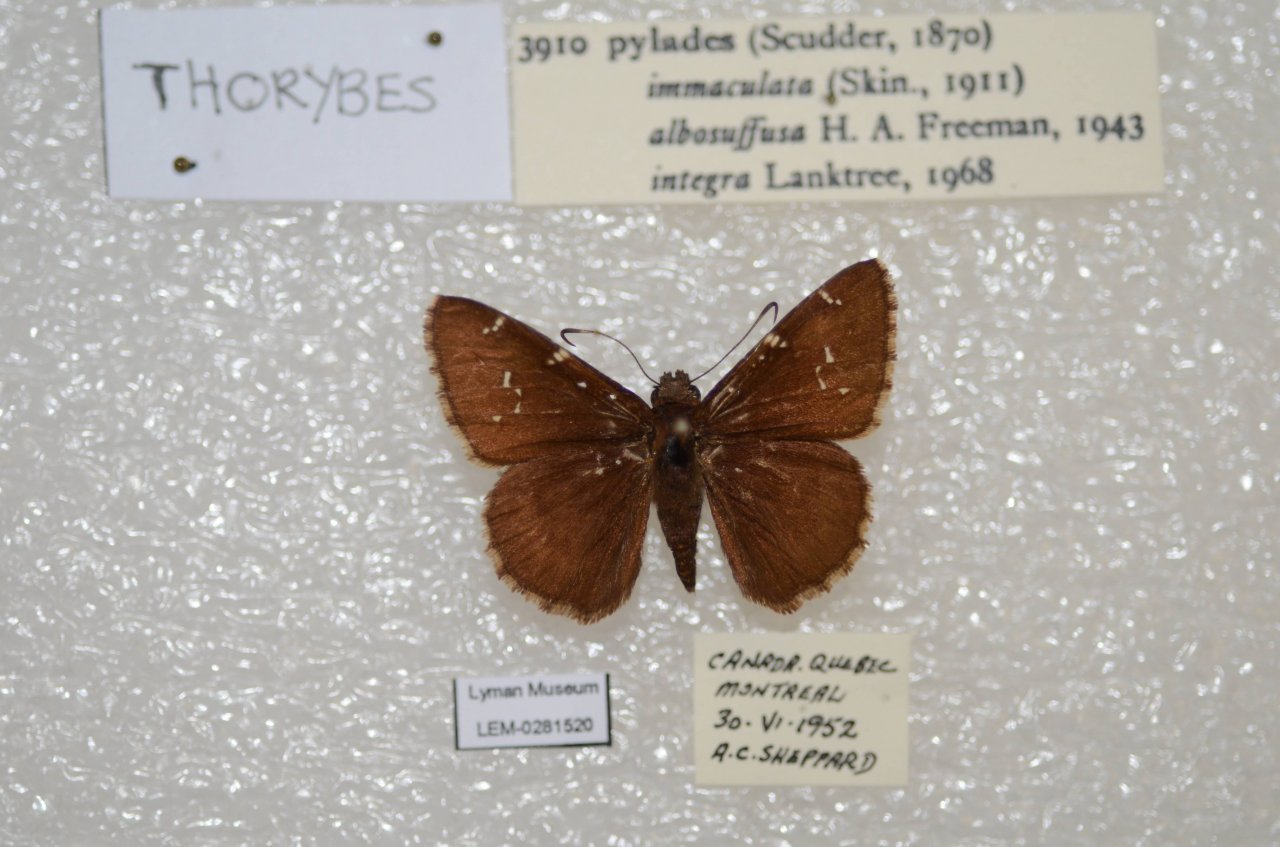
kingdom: Animalia
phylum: Arthropoda
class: Insecta
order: Lepidoptera
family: Hesperiidae
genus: Autochton
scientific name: Autochton
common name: Northern Cloudywing
